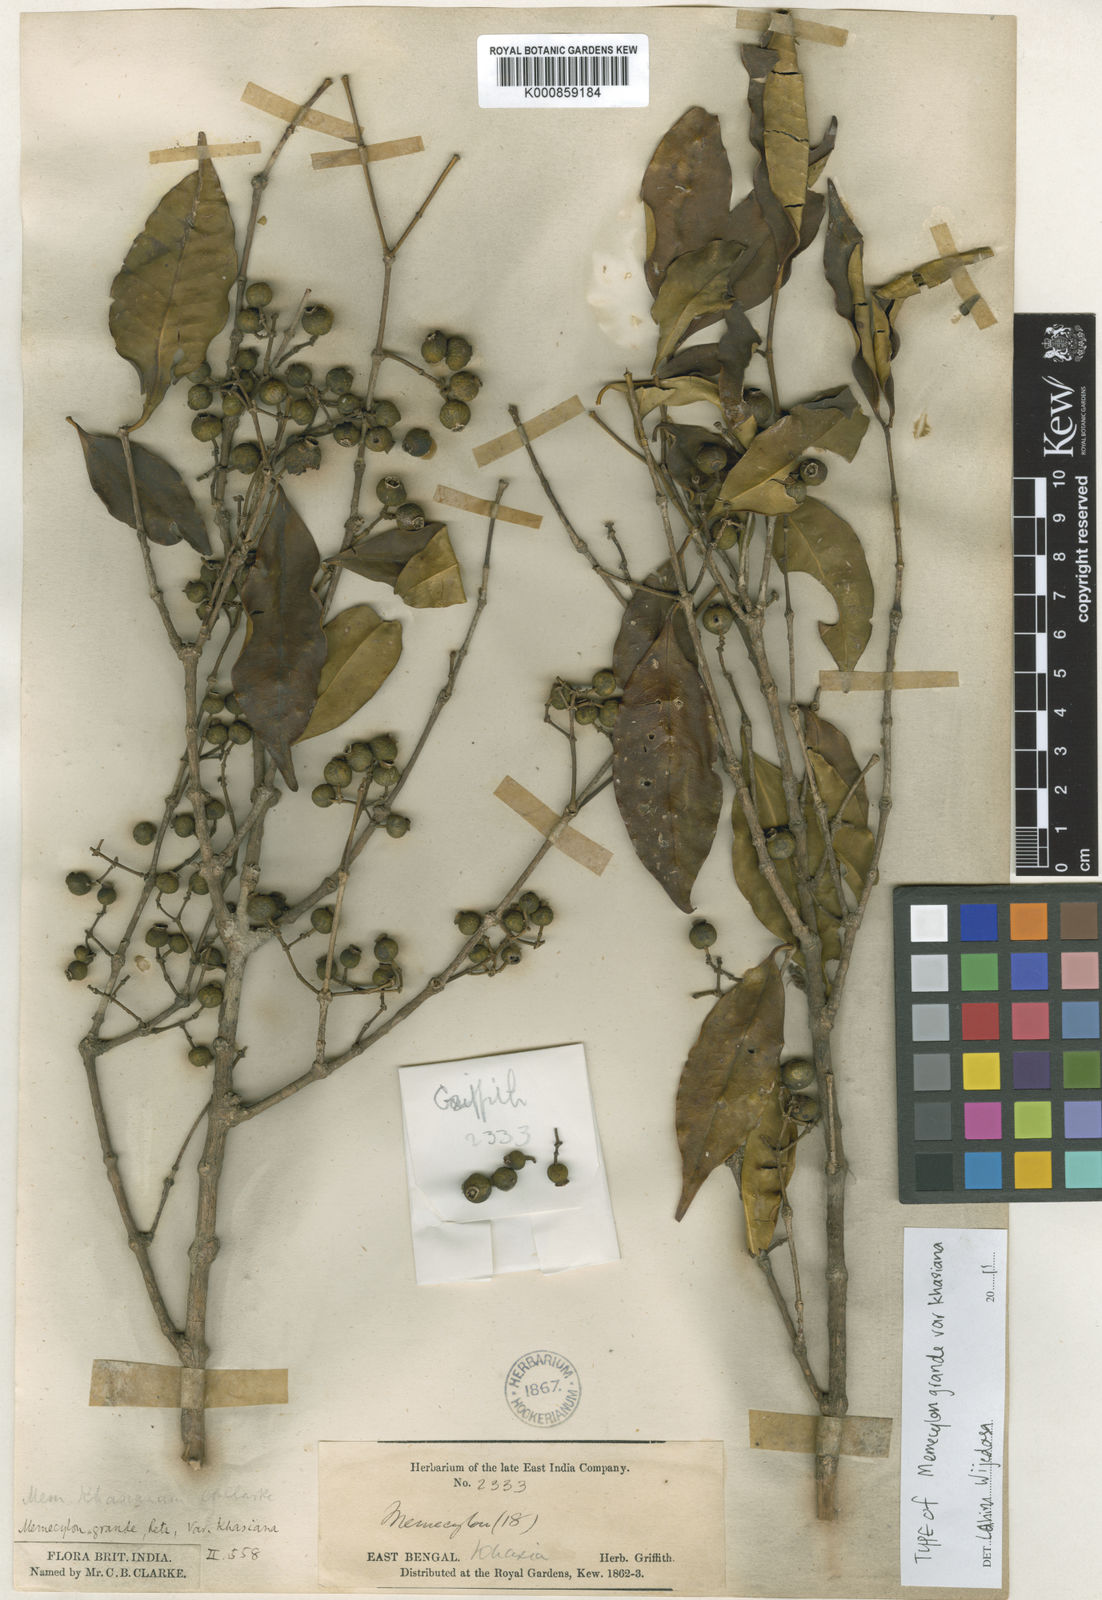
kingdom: Plantae
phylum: Tracheophyta
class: Magnoliopsida
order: Myrtales
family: Melastomataceae
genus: Memecylon
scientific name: Memecylon grande
